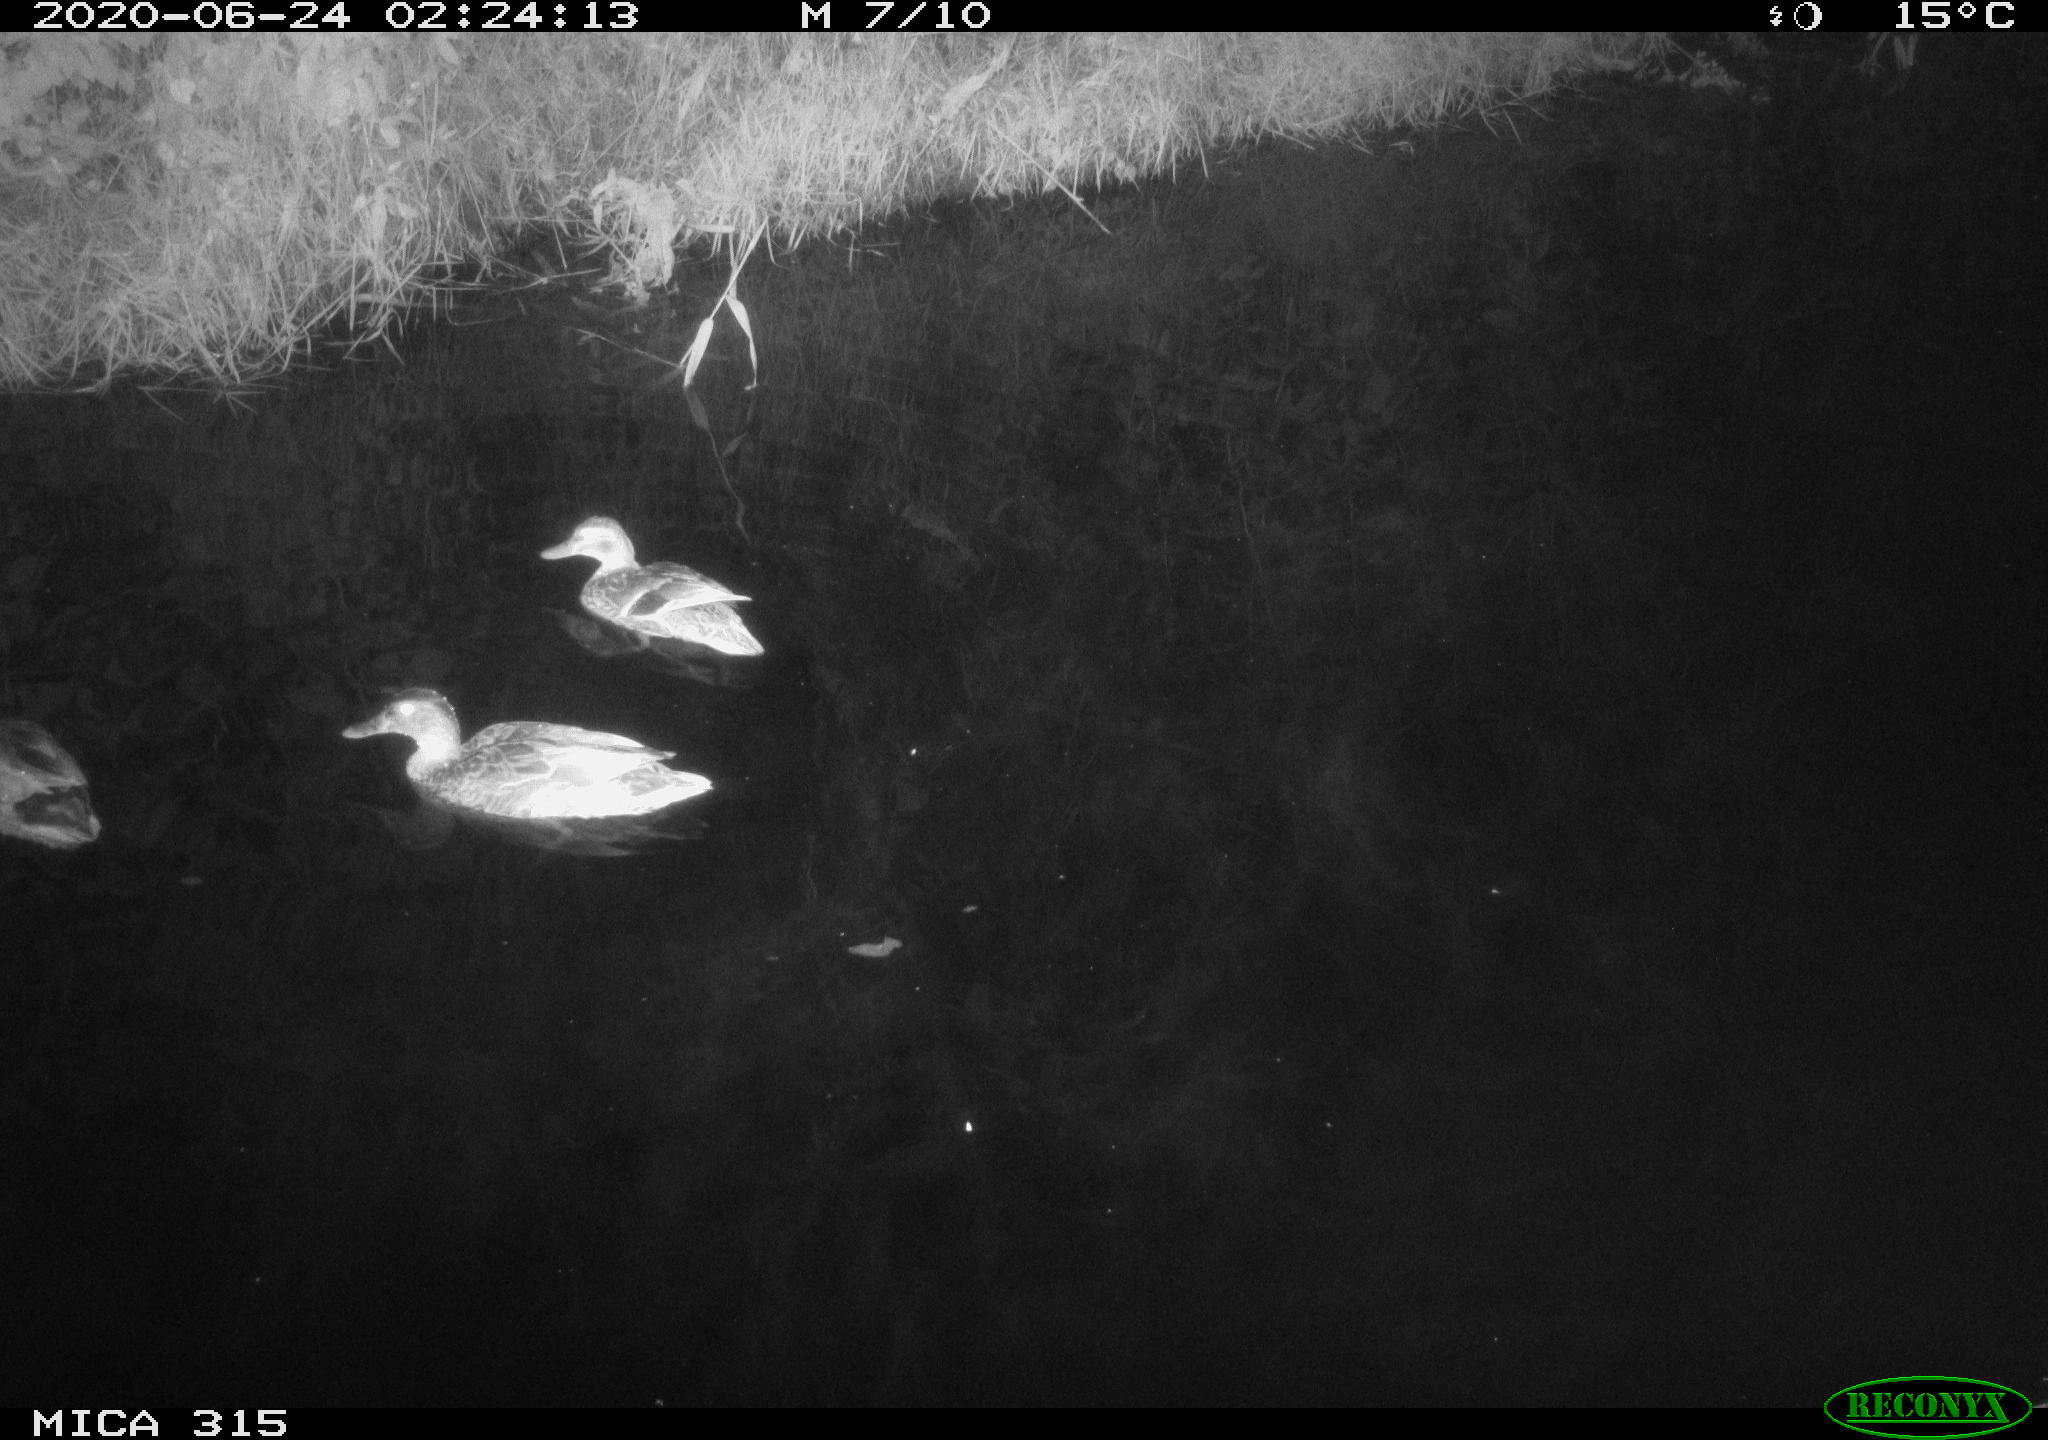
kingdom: Animalia
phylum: Chordata
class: Aves
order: Anseriformes
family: Anatidae
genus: Anas
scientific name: Anas platyrhynchos
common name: Mallard
